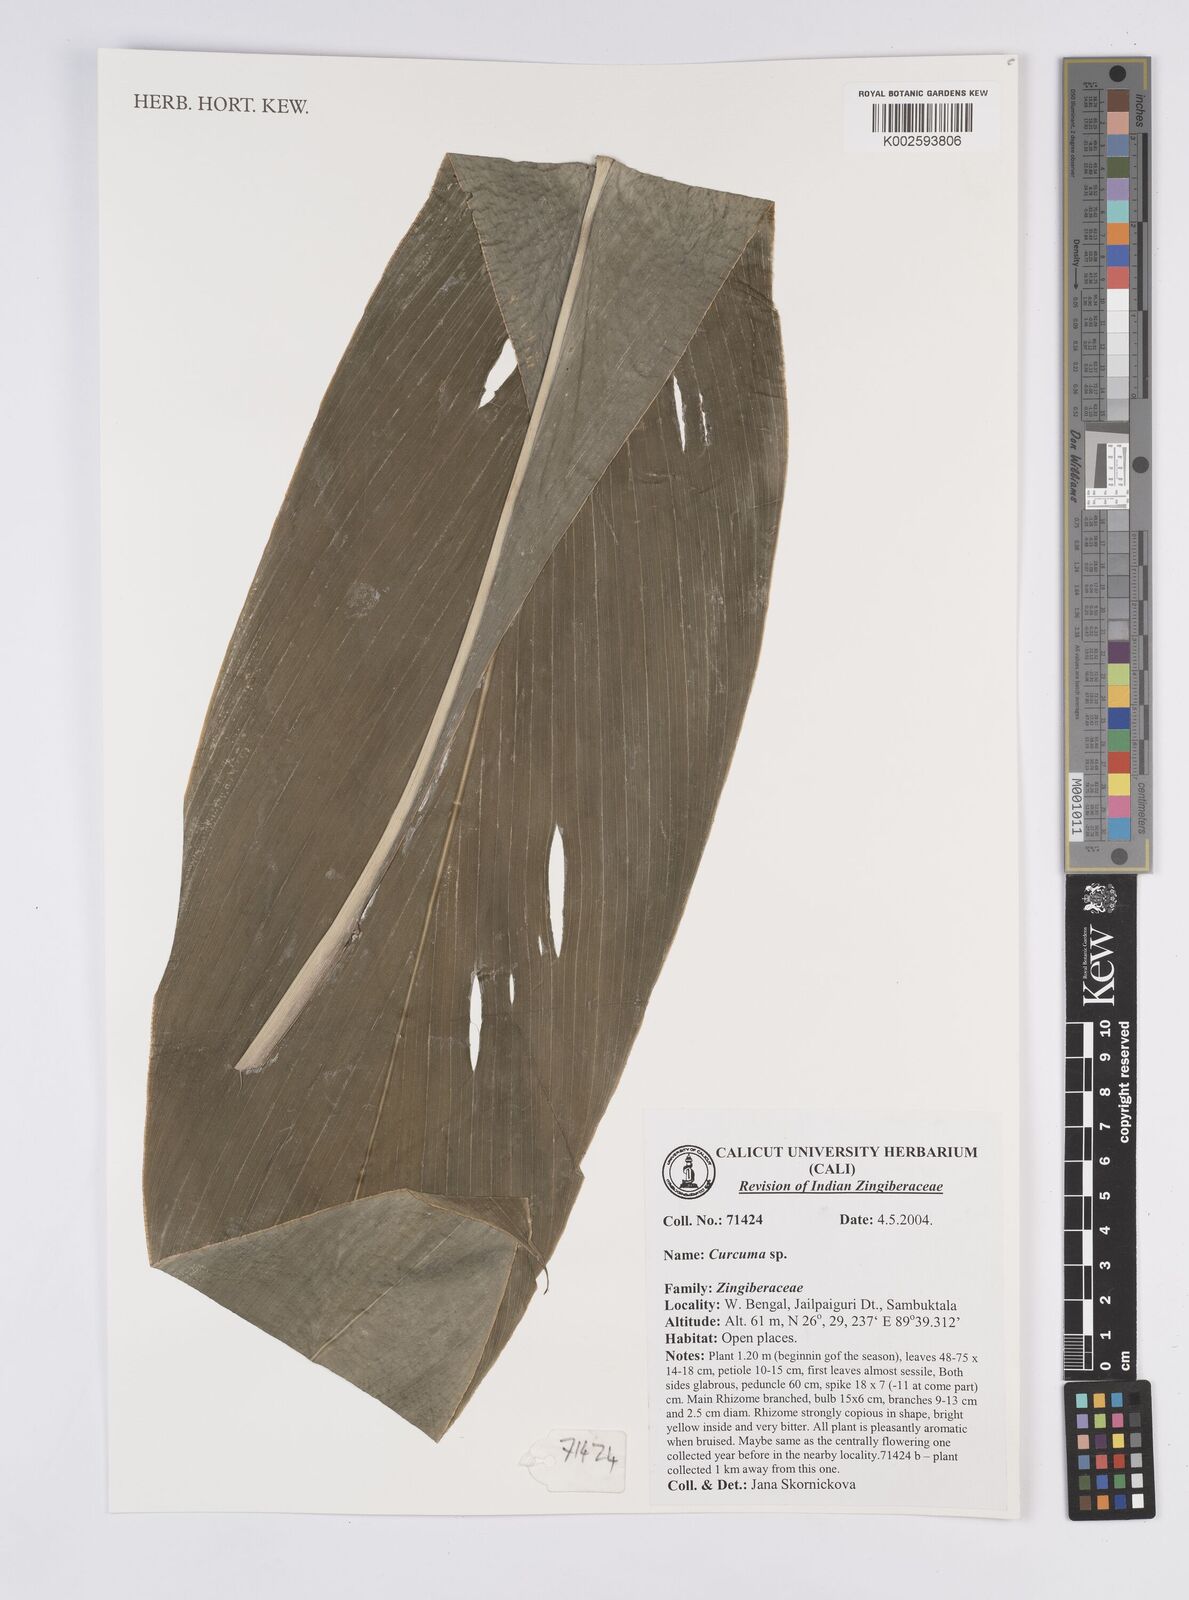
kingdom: Plantae
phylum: Tracheophyta
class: Liliopsida
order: Zingiberales
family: Zingiberaceae
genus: Curcuma
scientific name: Curcuma
